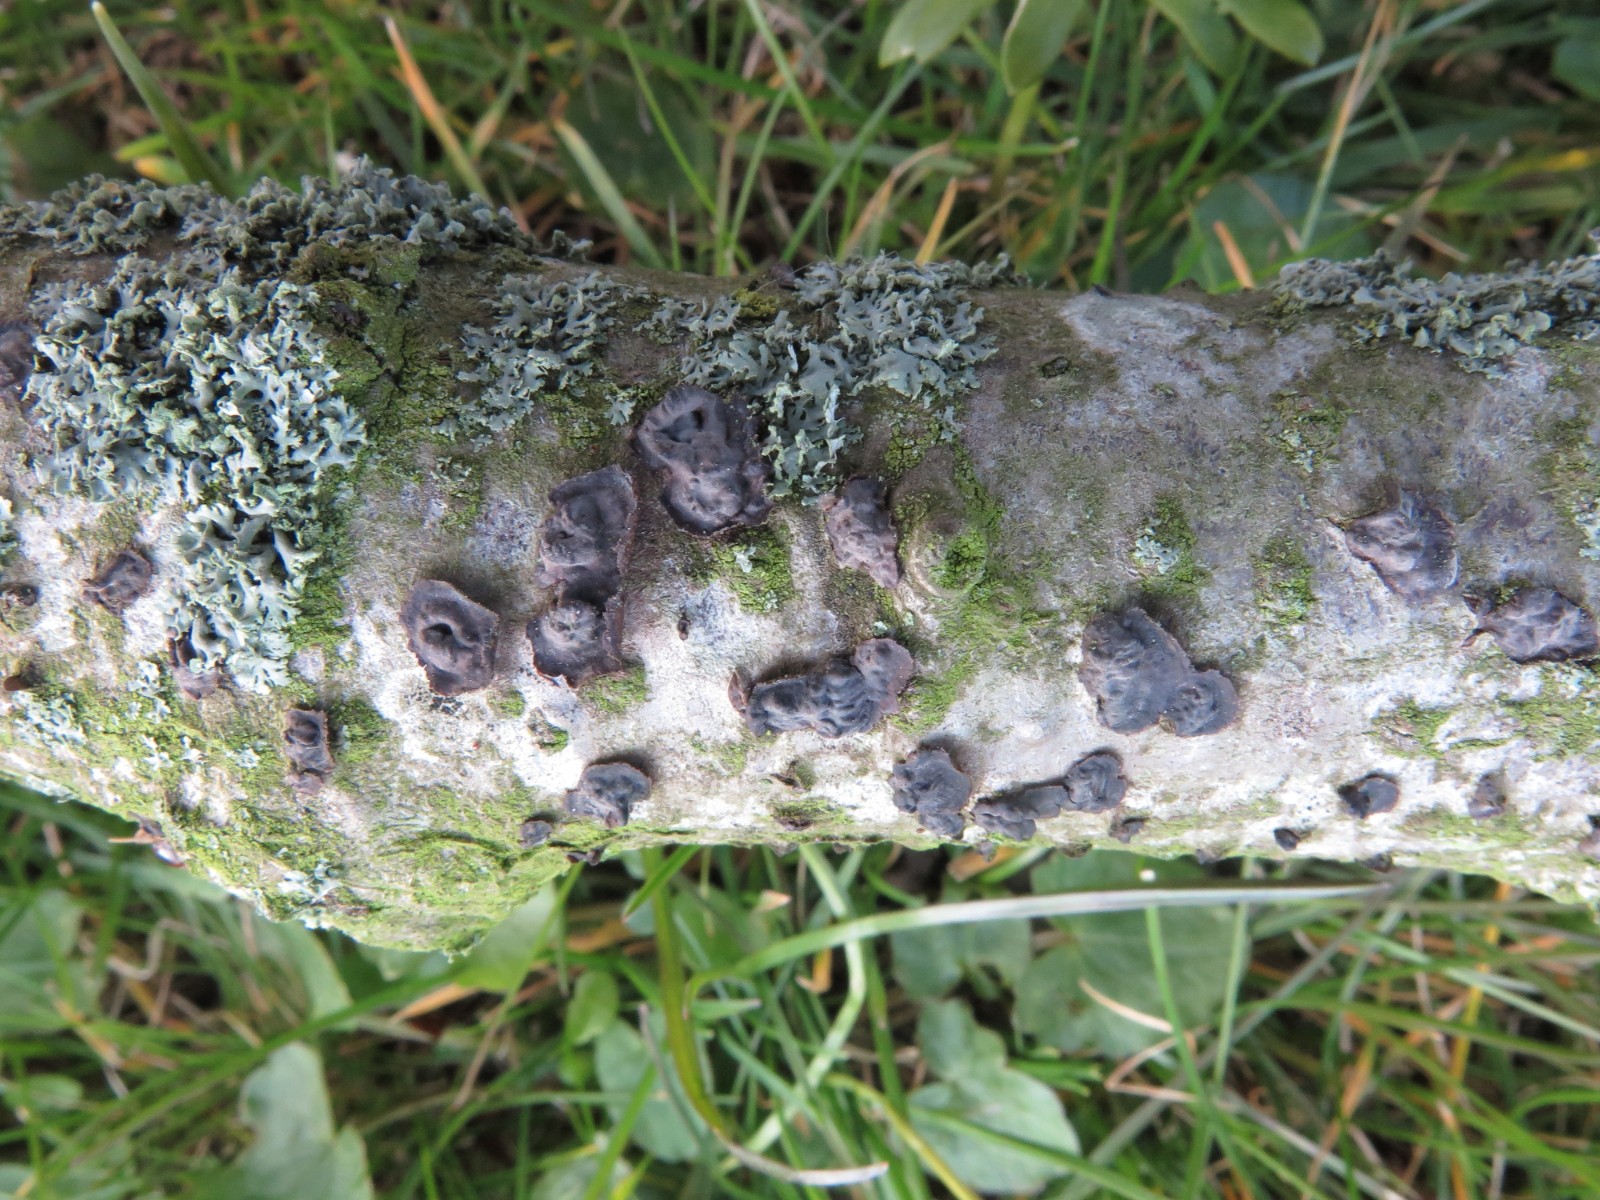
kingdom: Fungi
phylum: Basidiomycota
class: Agaricomycetes
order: Russulales
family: Peniophoraceae
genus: Peniophora
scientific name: Peniophora rufomarginata
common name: linde-voksskind
